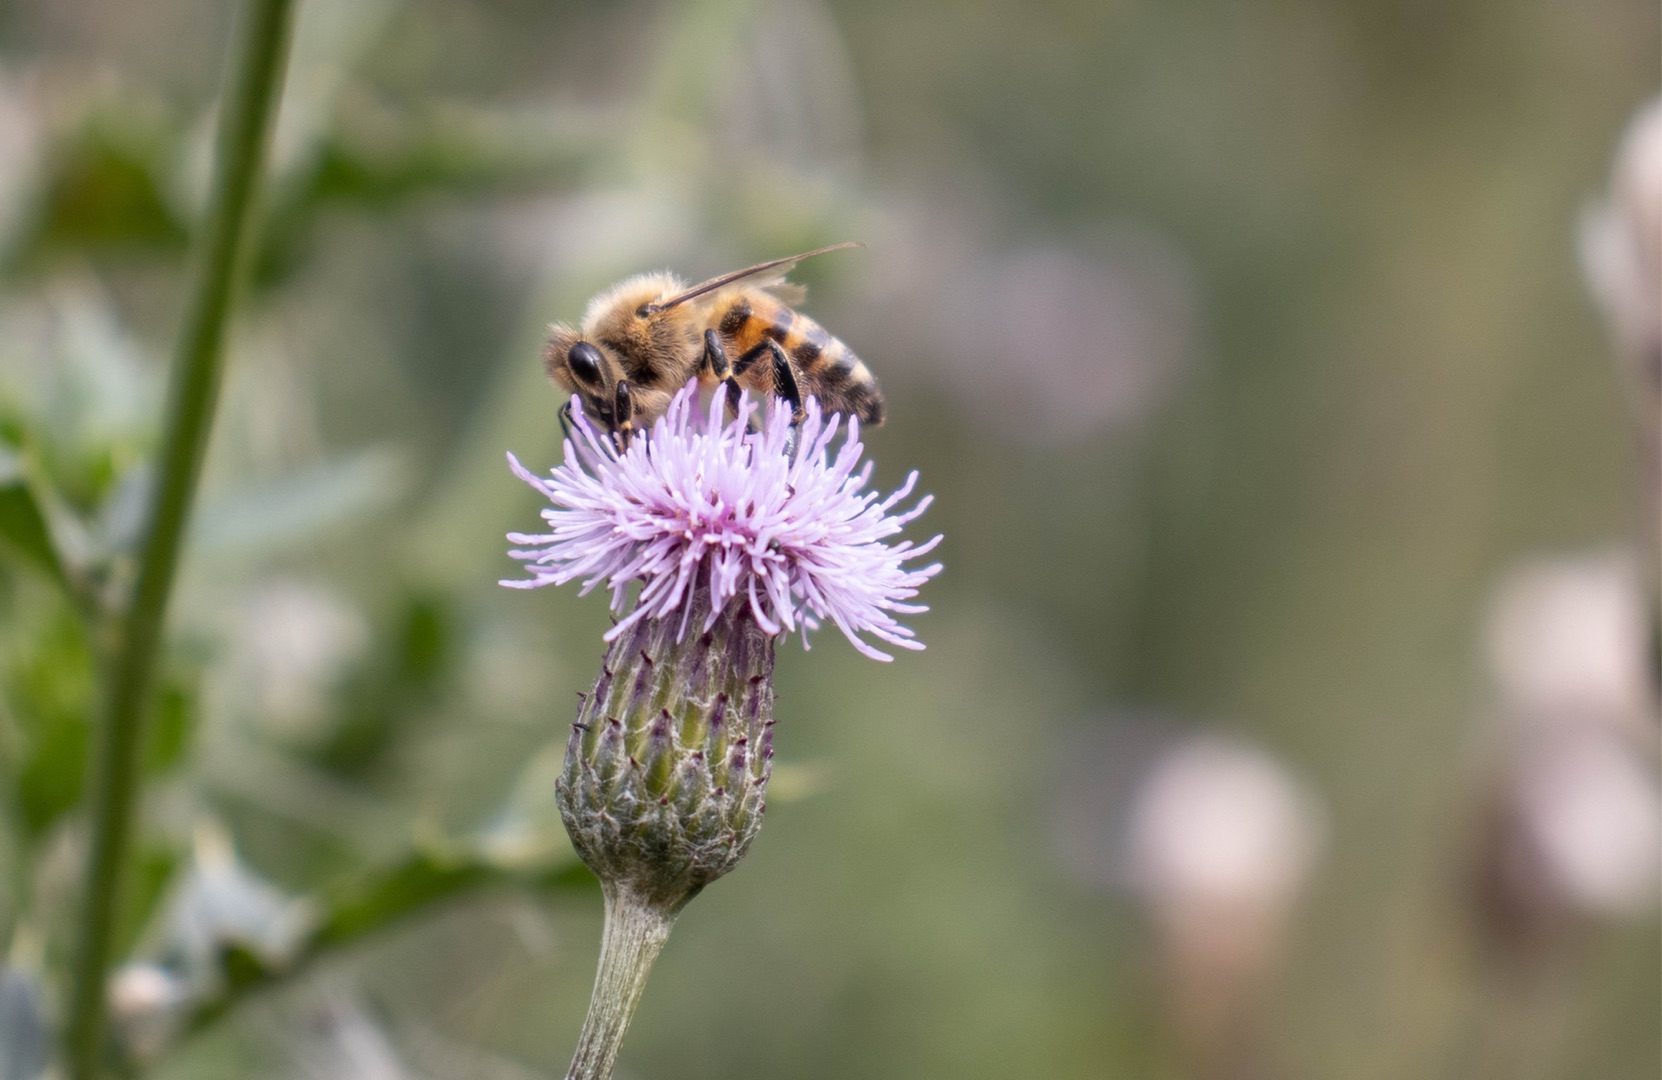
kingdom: Animalia
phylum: Arthropoda
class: Insecta
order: Hymenoptera
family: Apidae
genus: Apis
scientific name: Apis mellifera
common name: Honningbi
